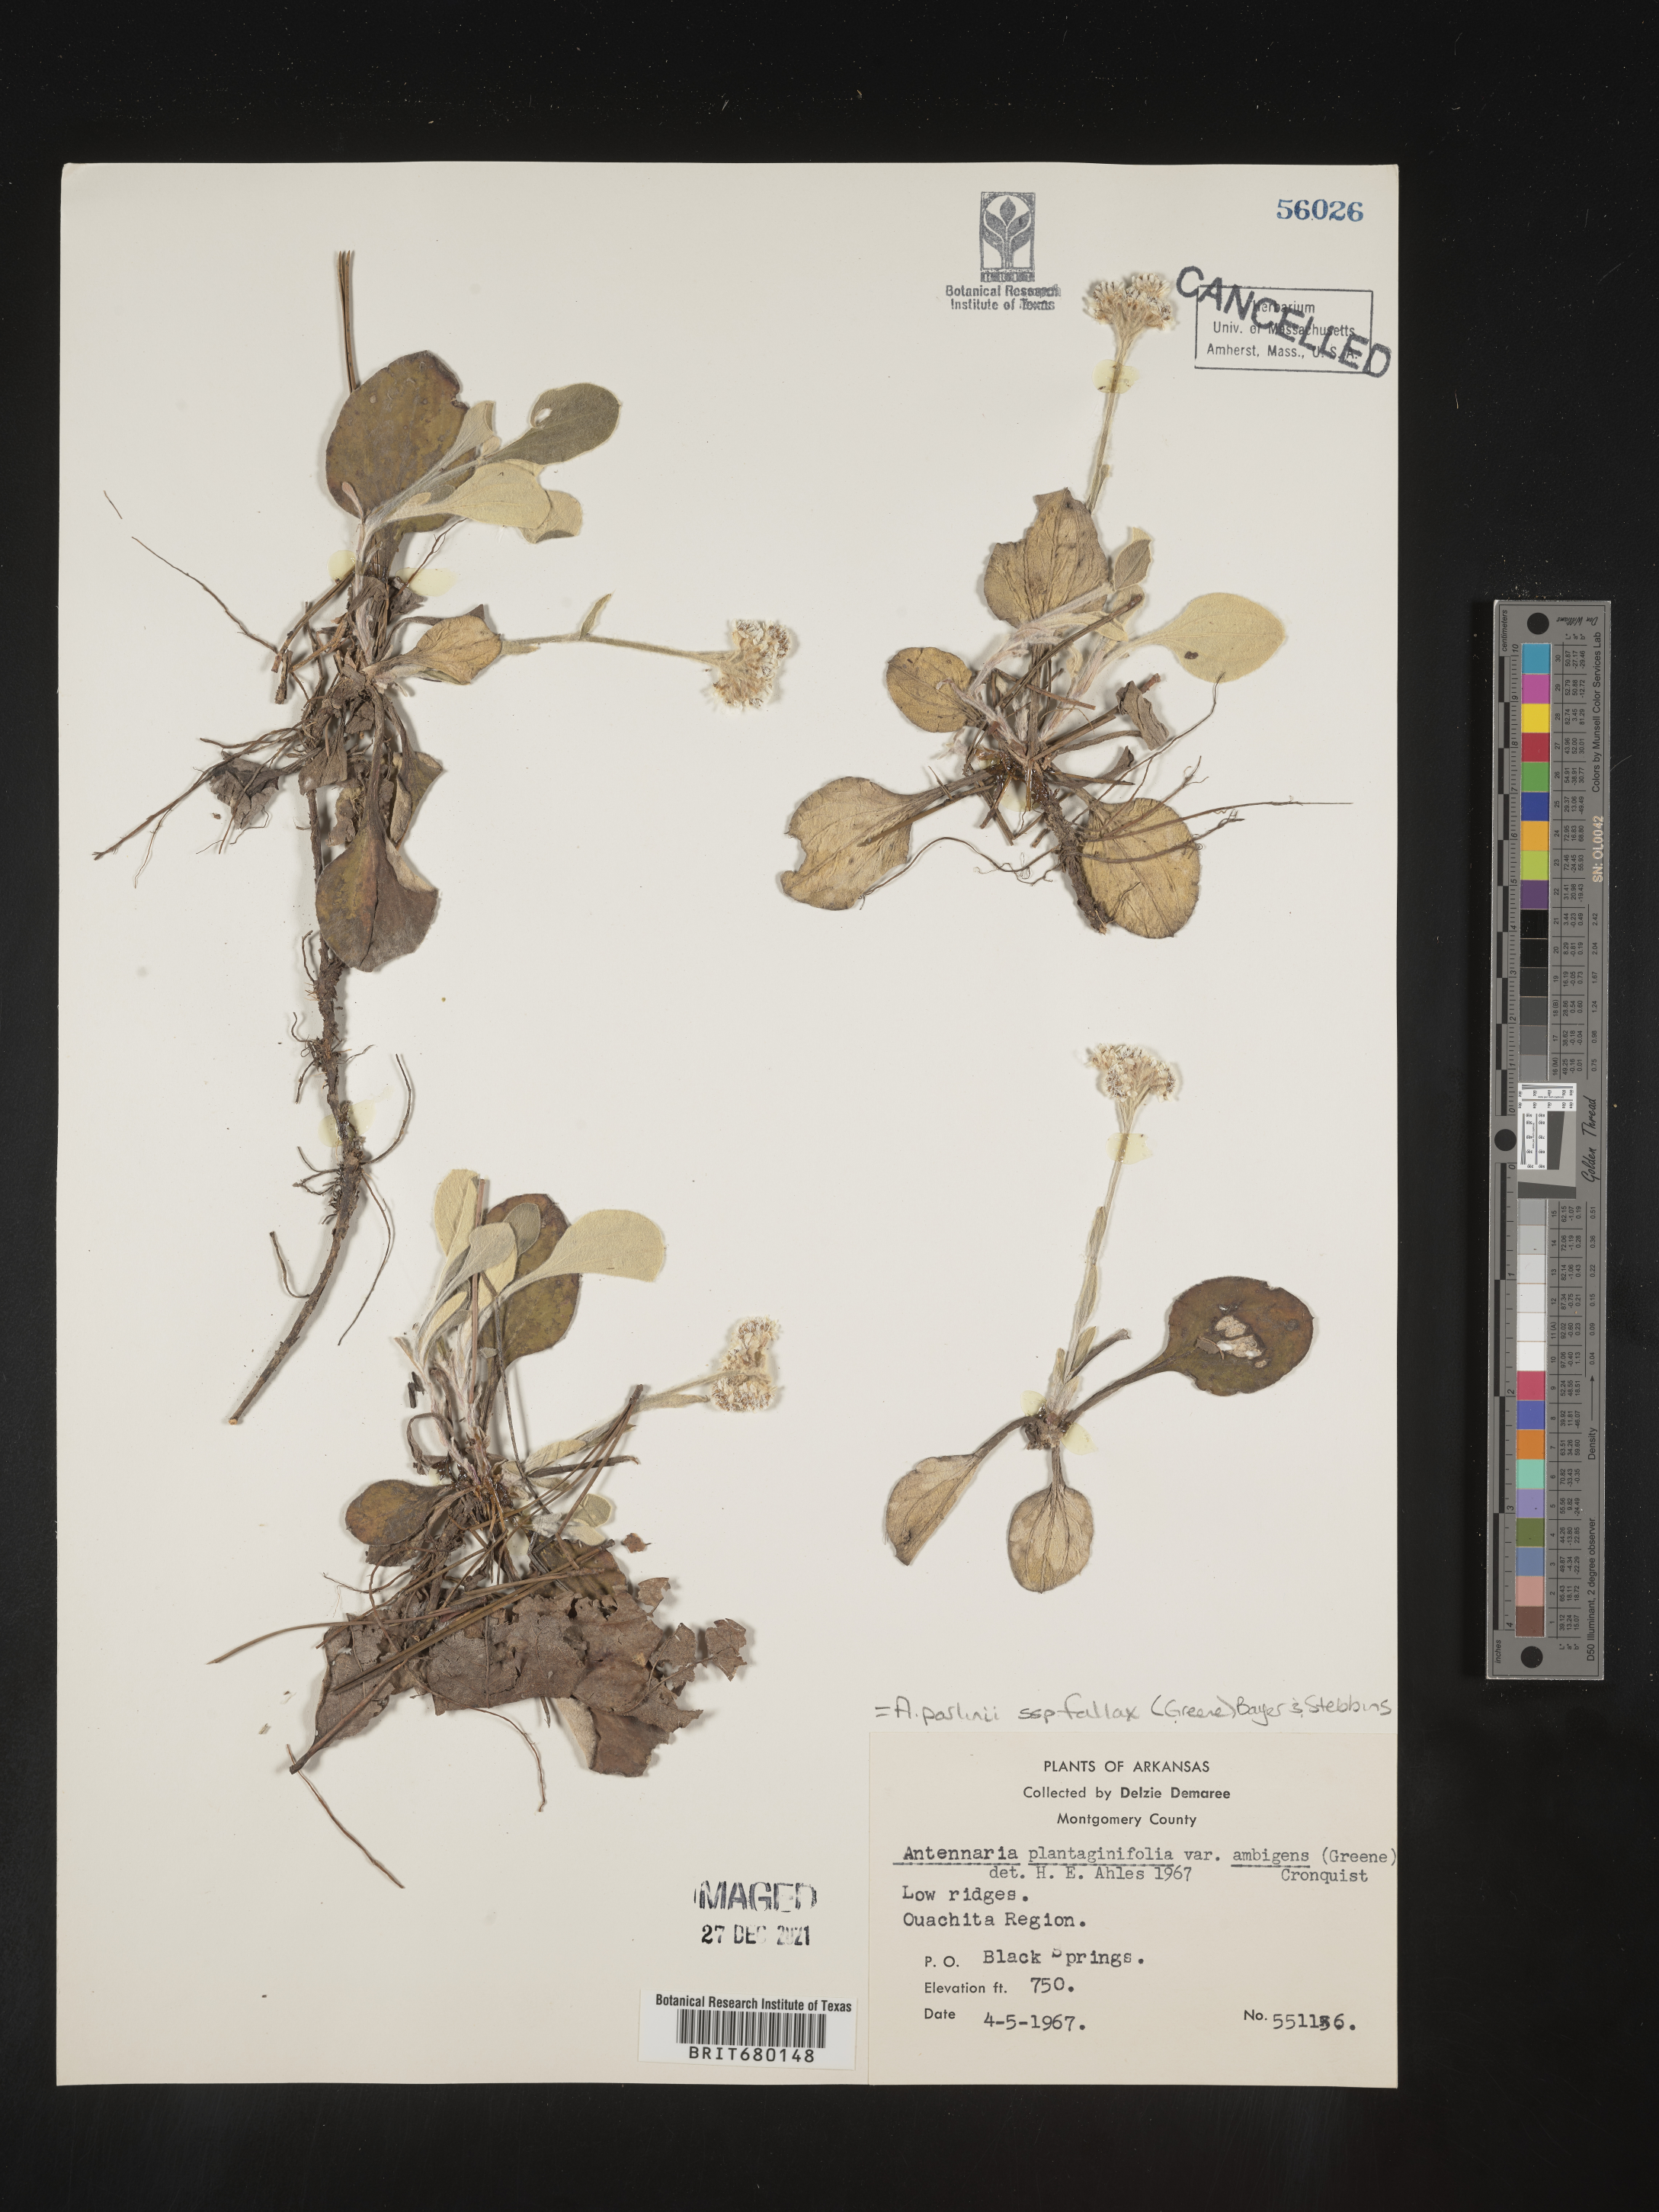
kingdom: Plantae
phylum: Tracheophyta
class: Magnoliopsida
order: Asterales
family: Asteraceae
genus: Antennaria
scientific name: Antennaria plantaginifolia
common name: Plantain-leaved pussytoes
